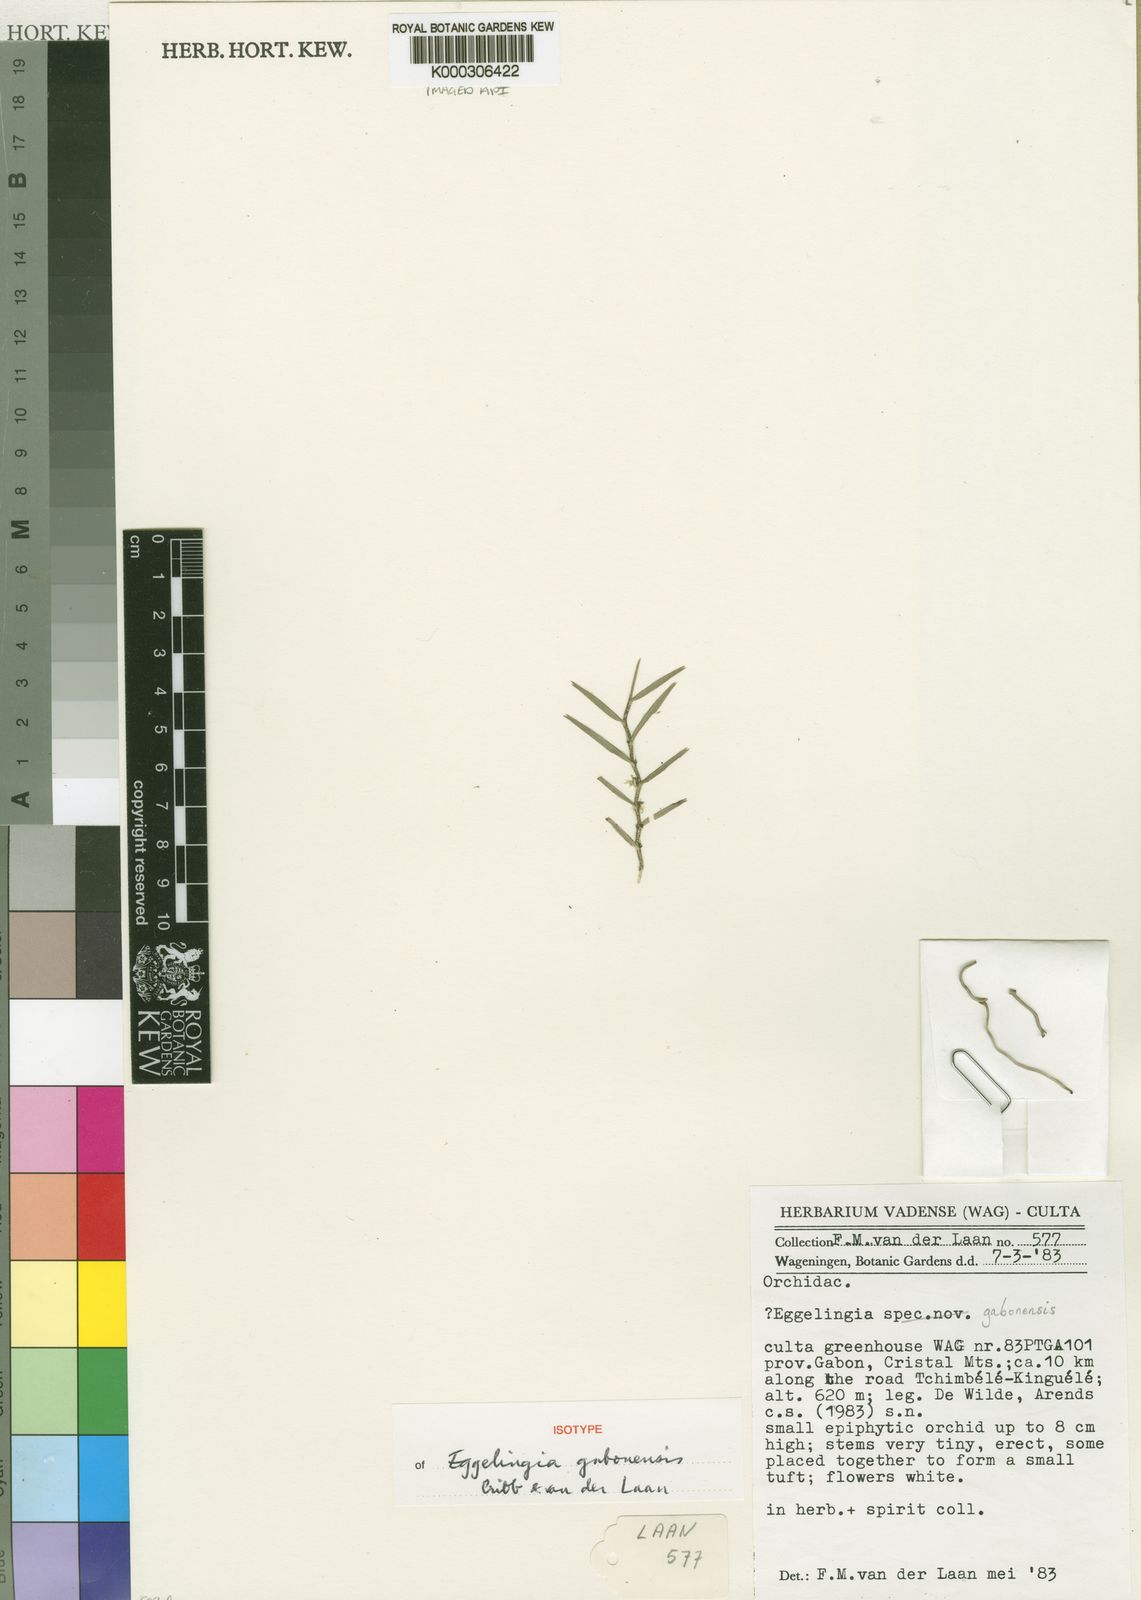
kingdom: Plantae
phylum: Tracheophyta
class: Liliopsida
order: Asparagales
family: Orchidaceae
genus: Eggelingia
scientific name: Eggelingia gabonensis
